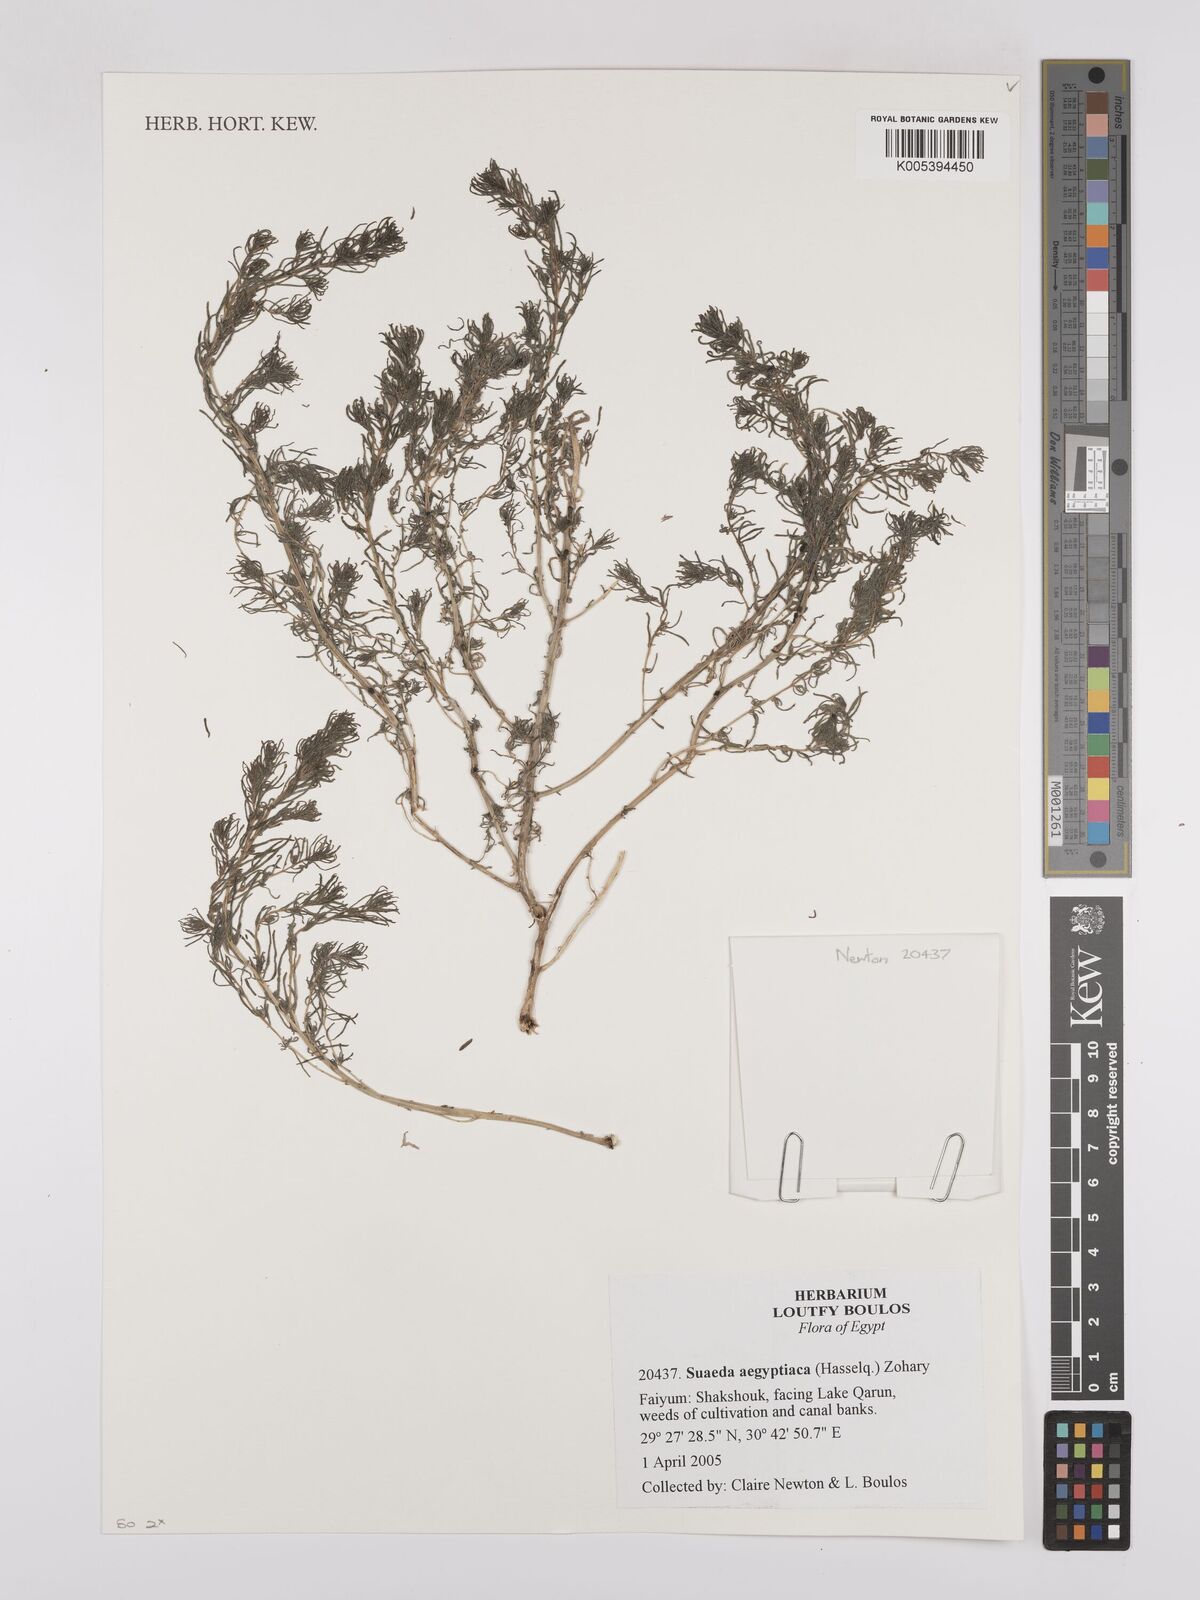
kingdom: Plantae
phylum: Tracheophyta
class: Magnoliopsida
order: Caryophyllales
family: Amaranthaceae
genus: Suaeda
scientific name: Suaeda aegyptiaca
